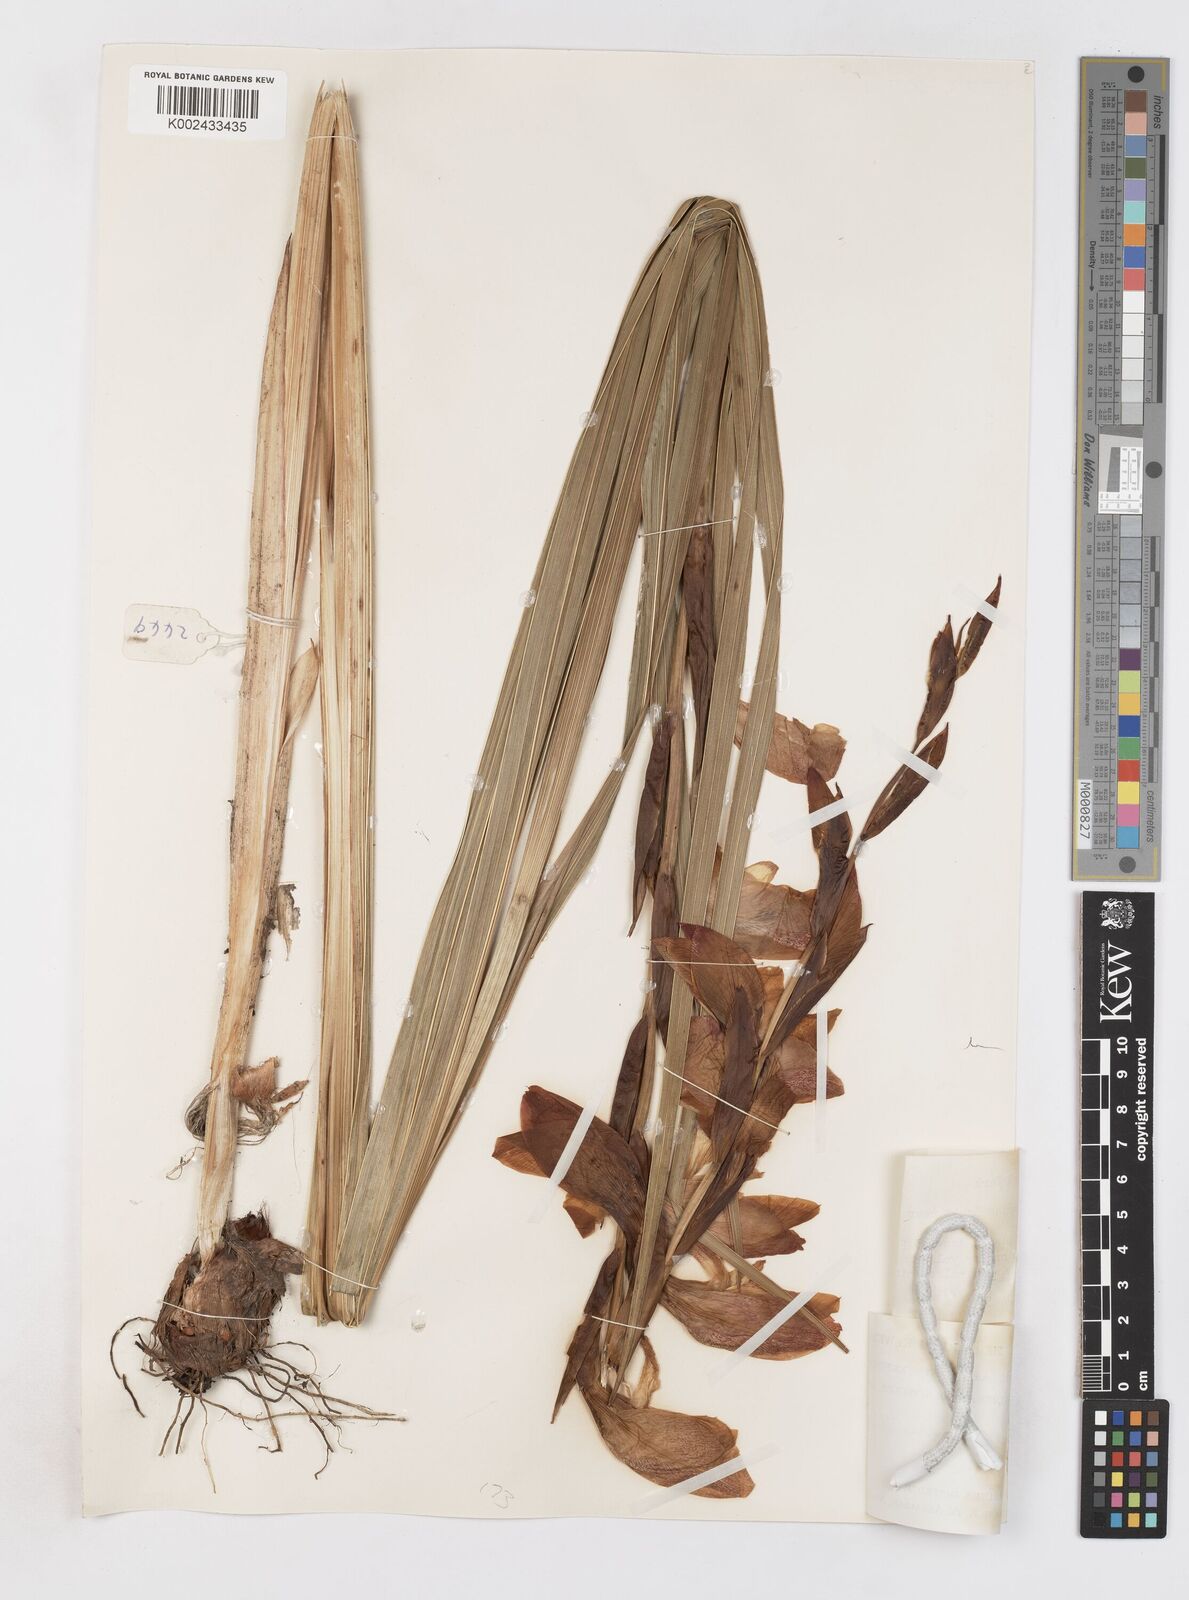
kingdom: Plantae
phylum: Tracheophyta
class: Liliopsida
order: Asparagales
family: Iridaceae
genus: Gladiolus
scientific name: Gladiolus dalenii
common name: Cornflag
